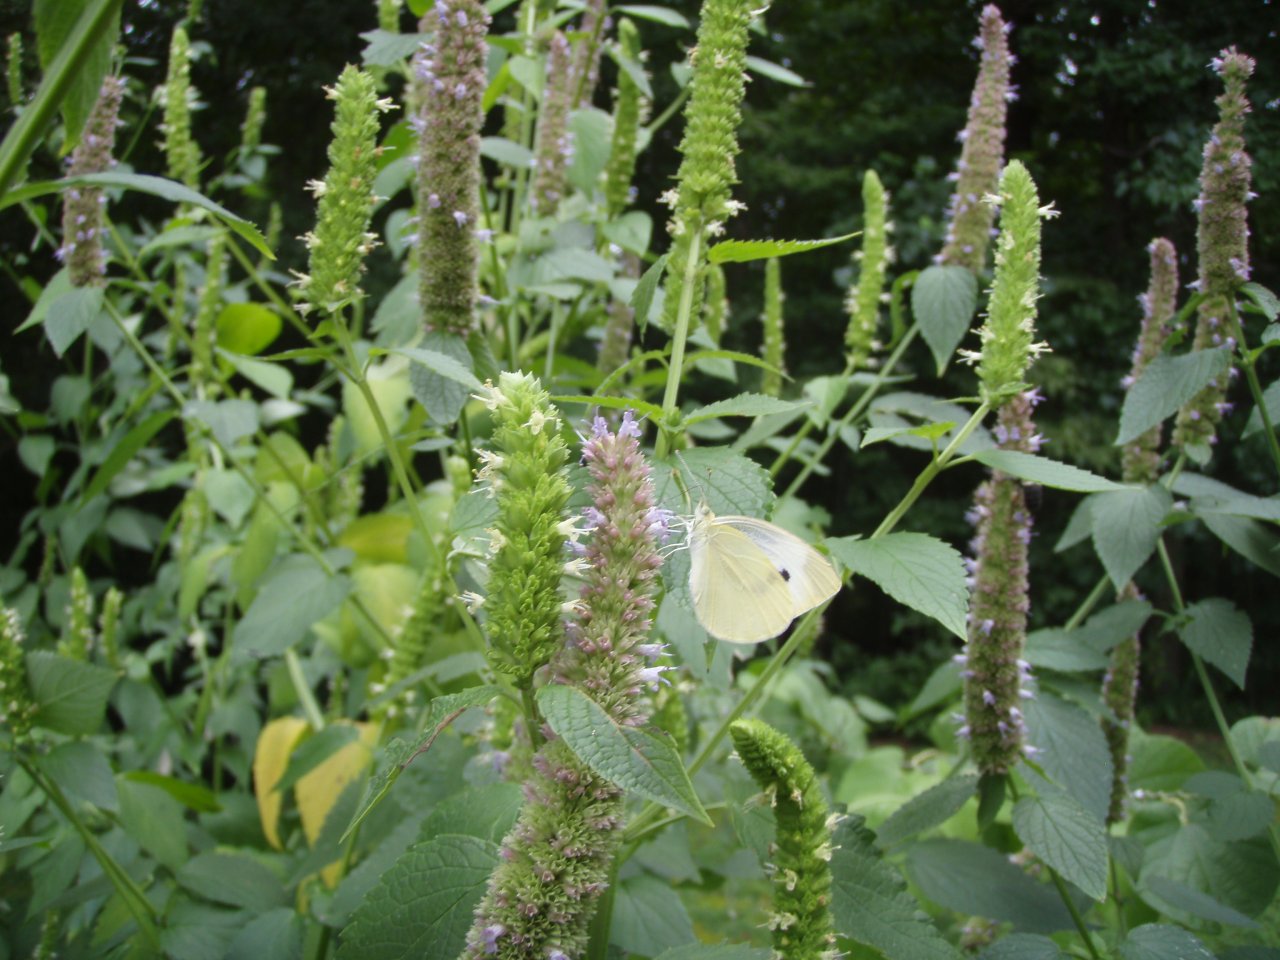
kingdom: Animalia
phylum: Arthropoda
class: Insecta
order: Lepidoptera
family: Pieridae
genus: Pieris
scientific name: Pieris rapae
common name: Cabbage White
